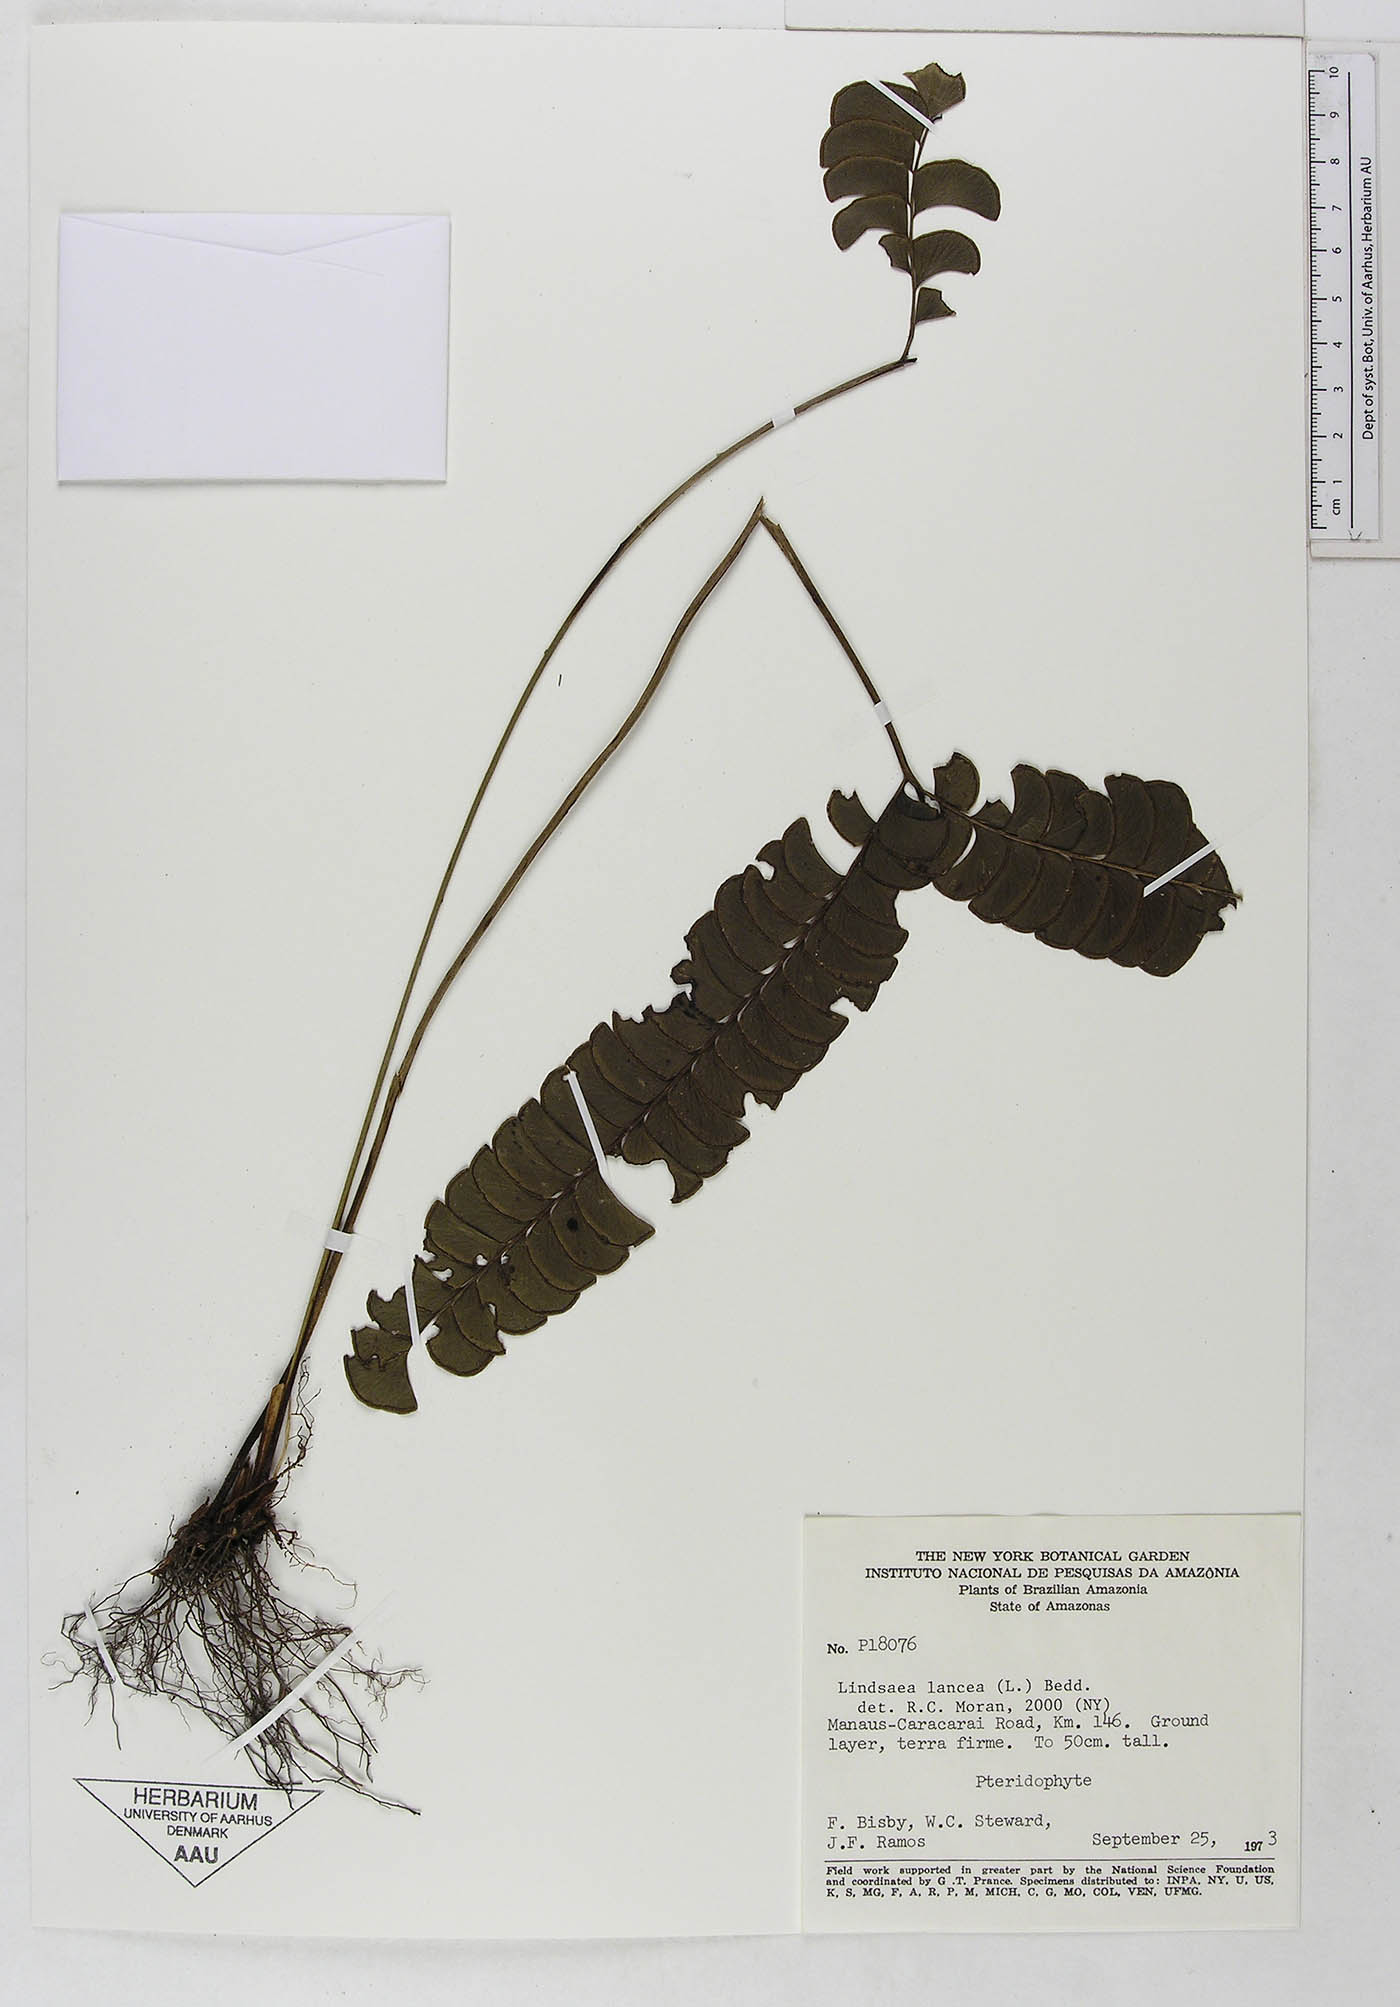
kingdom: Plantae
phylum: Tracheophyta
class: Polypodiopsida
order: Polypodiales
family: Dennstaedtiaceae
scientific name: Dennstaedtiaceae
